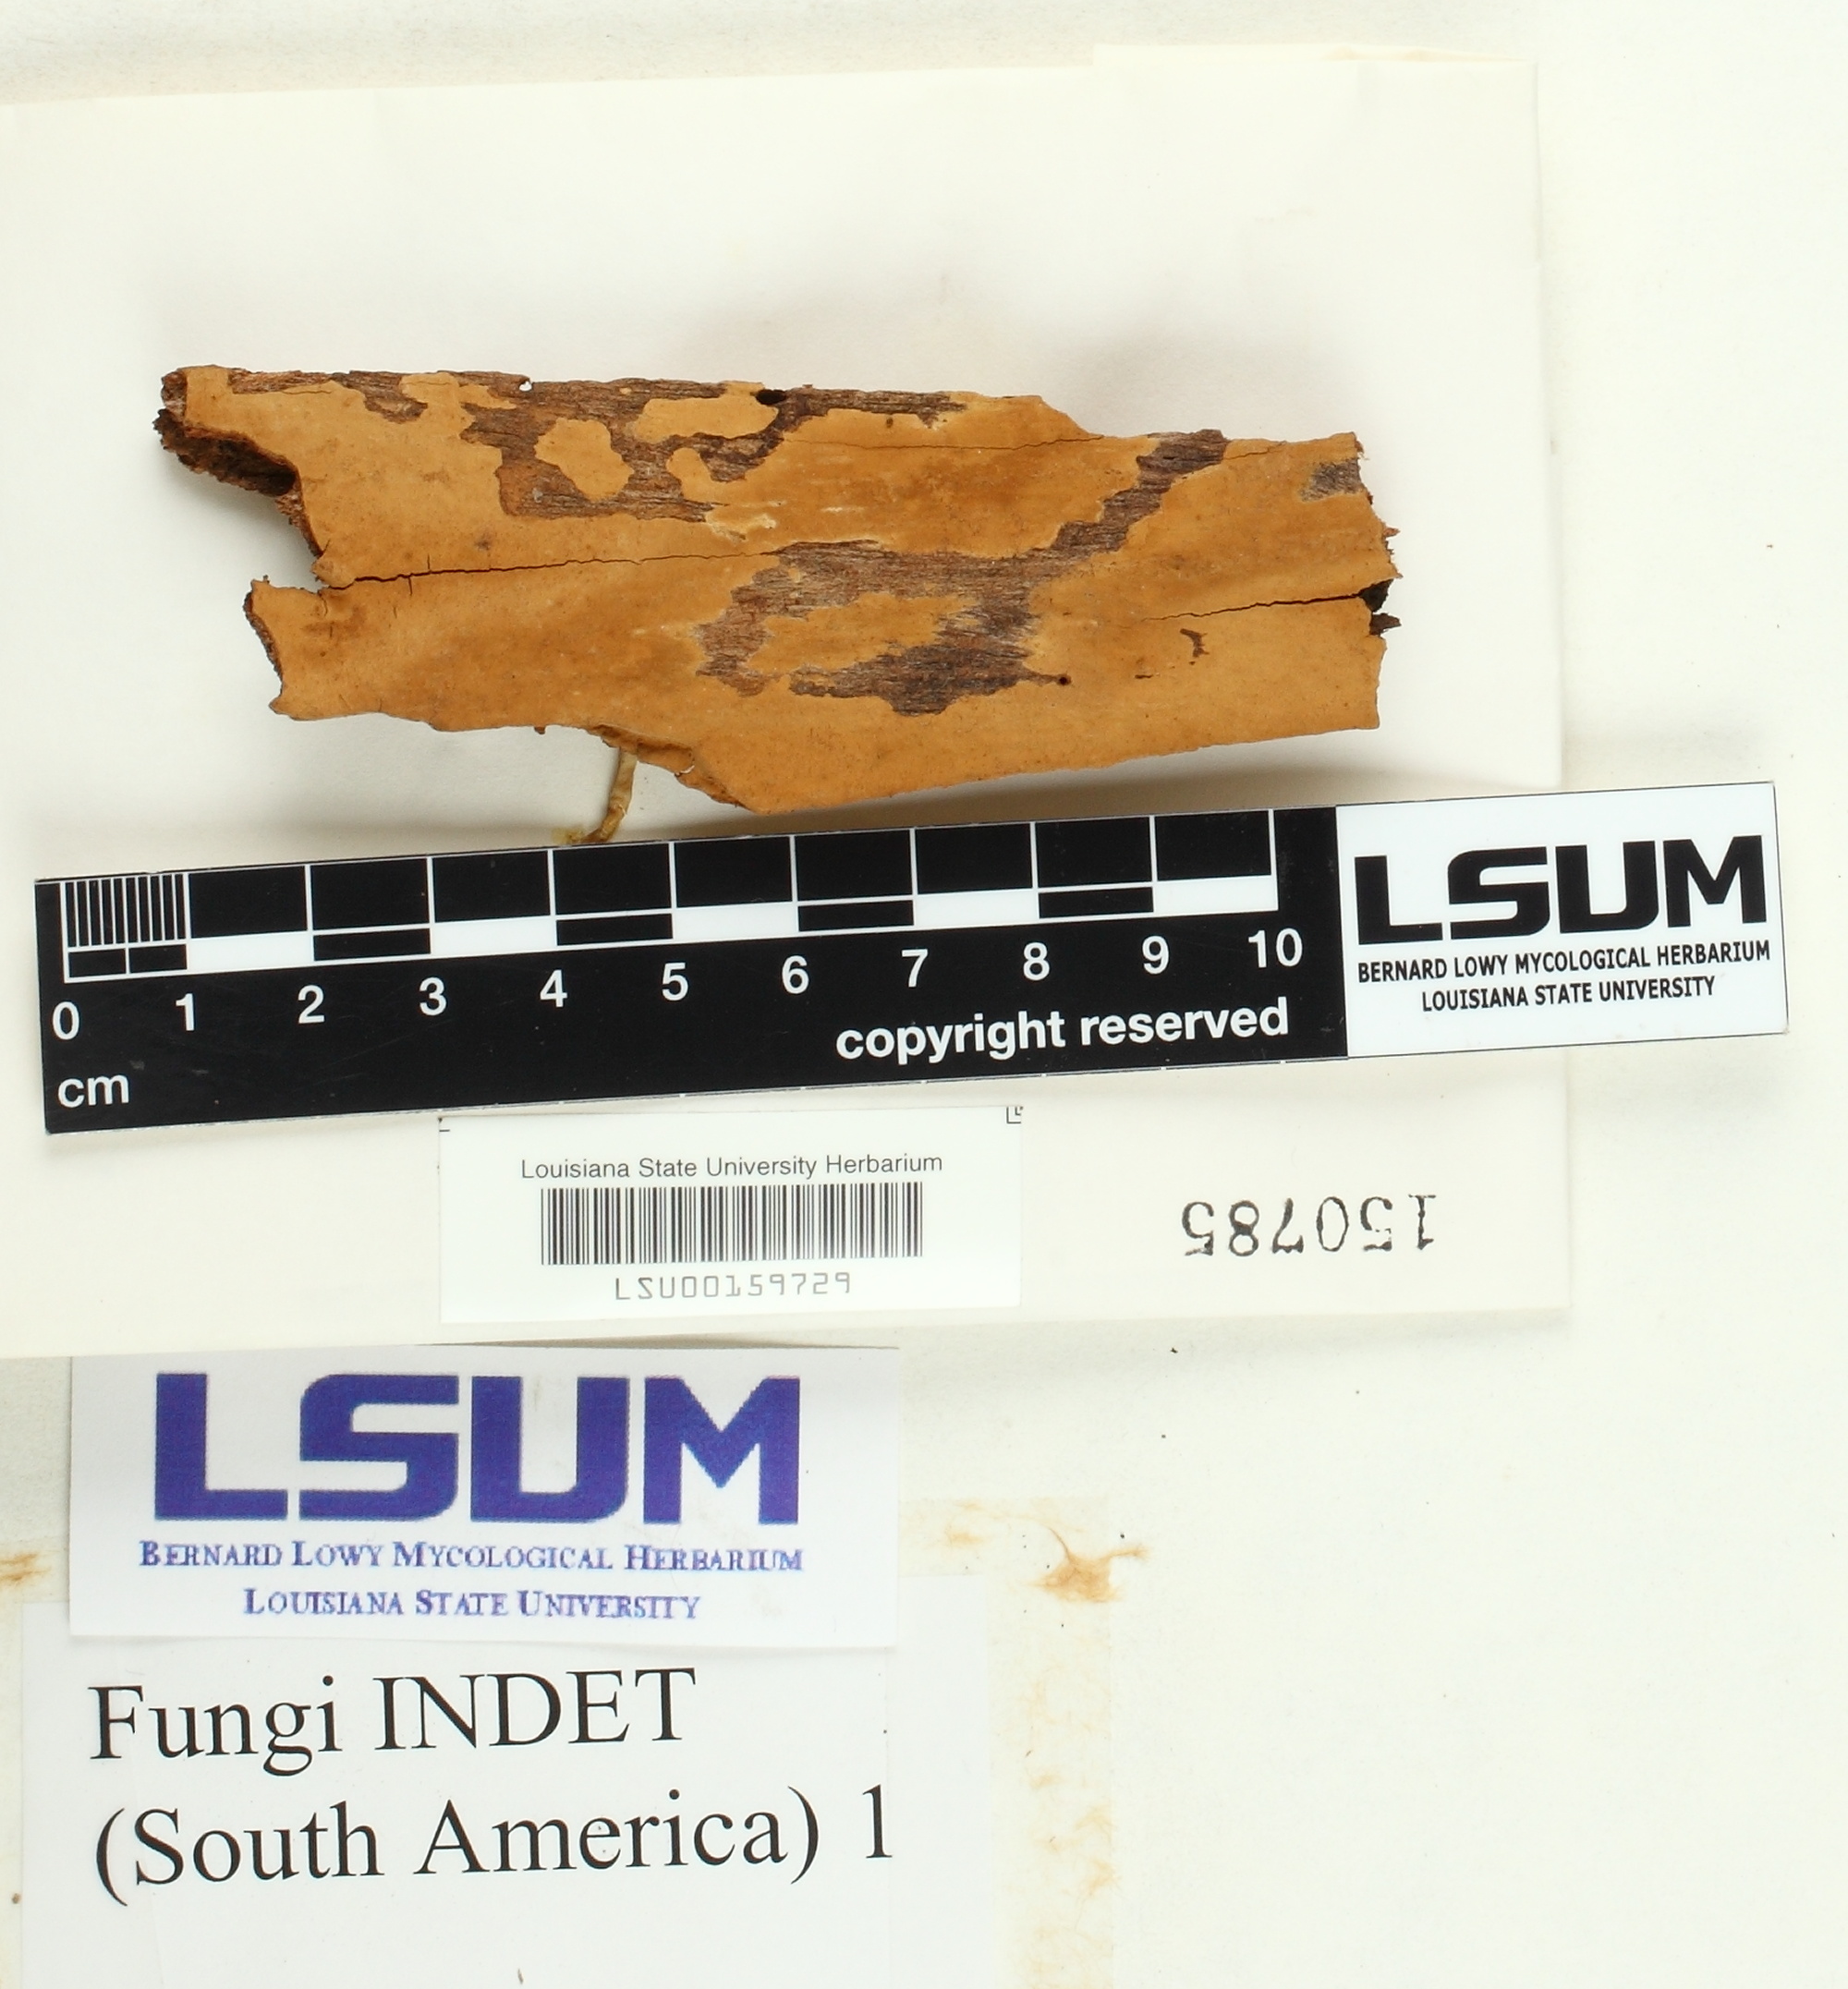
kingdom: Fungi
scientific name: Fungi
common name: Fungi
